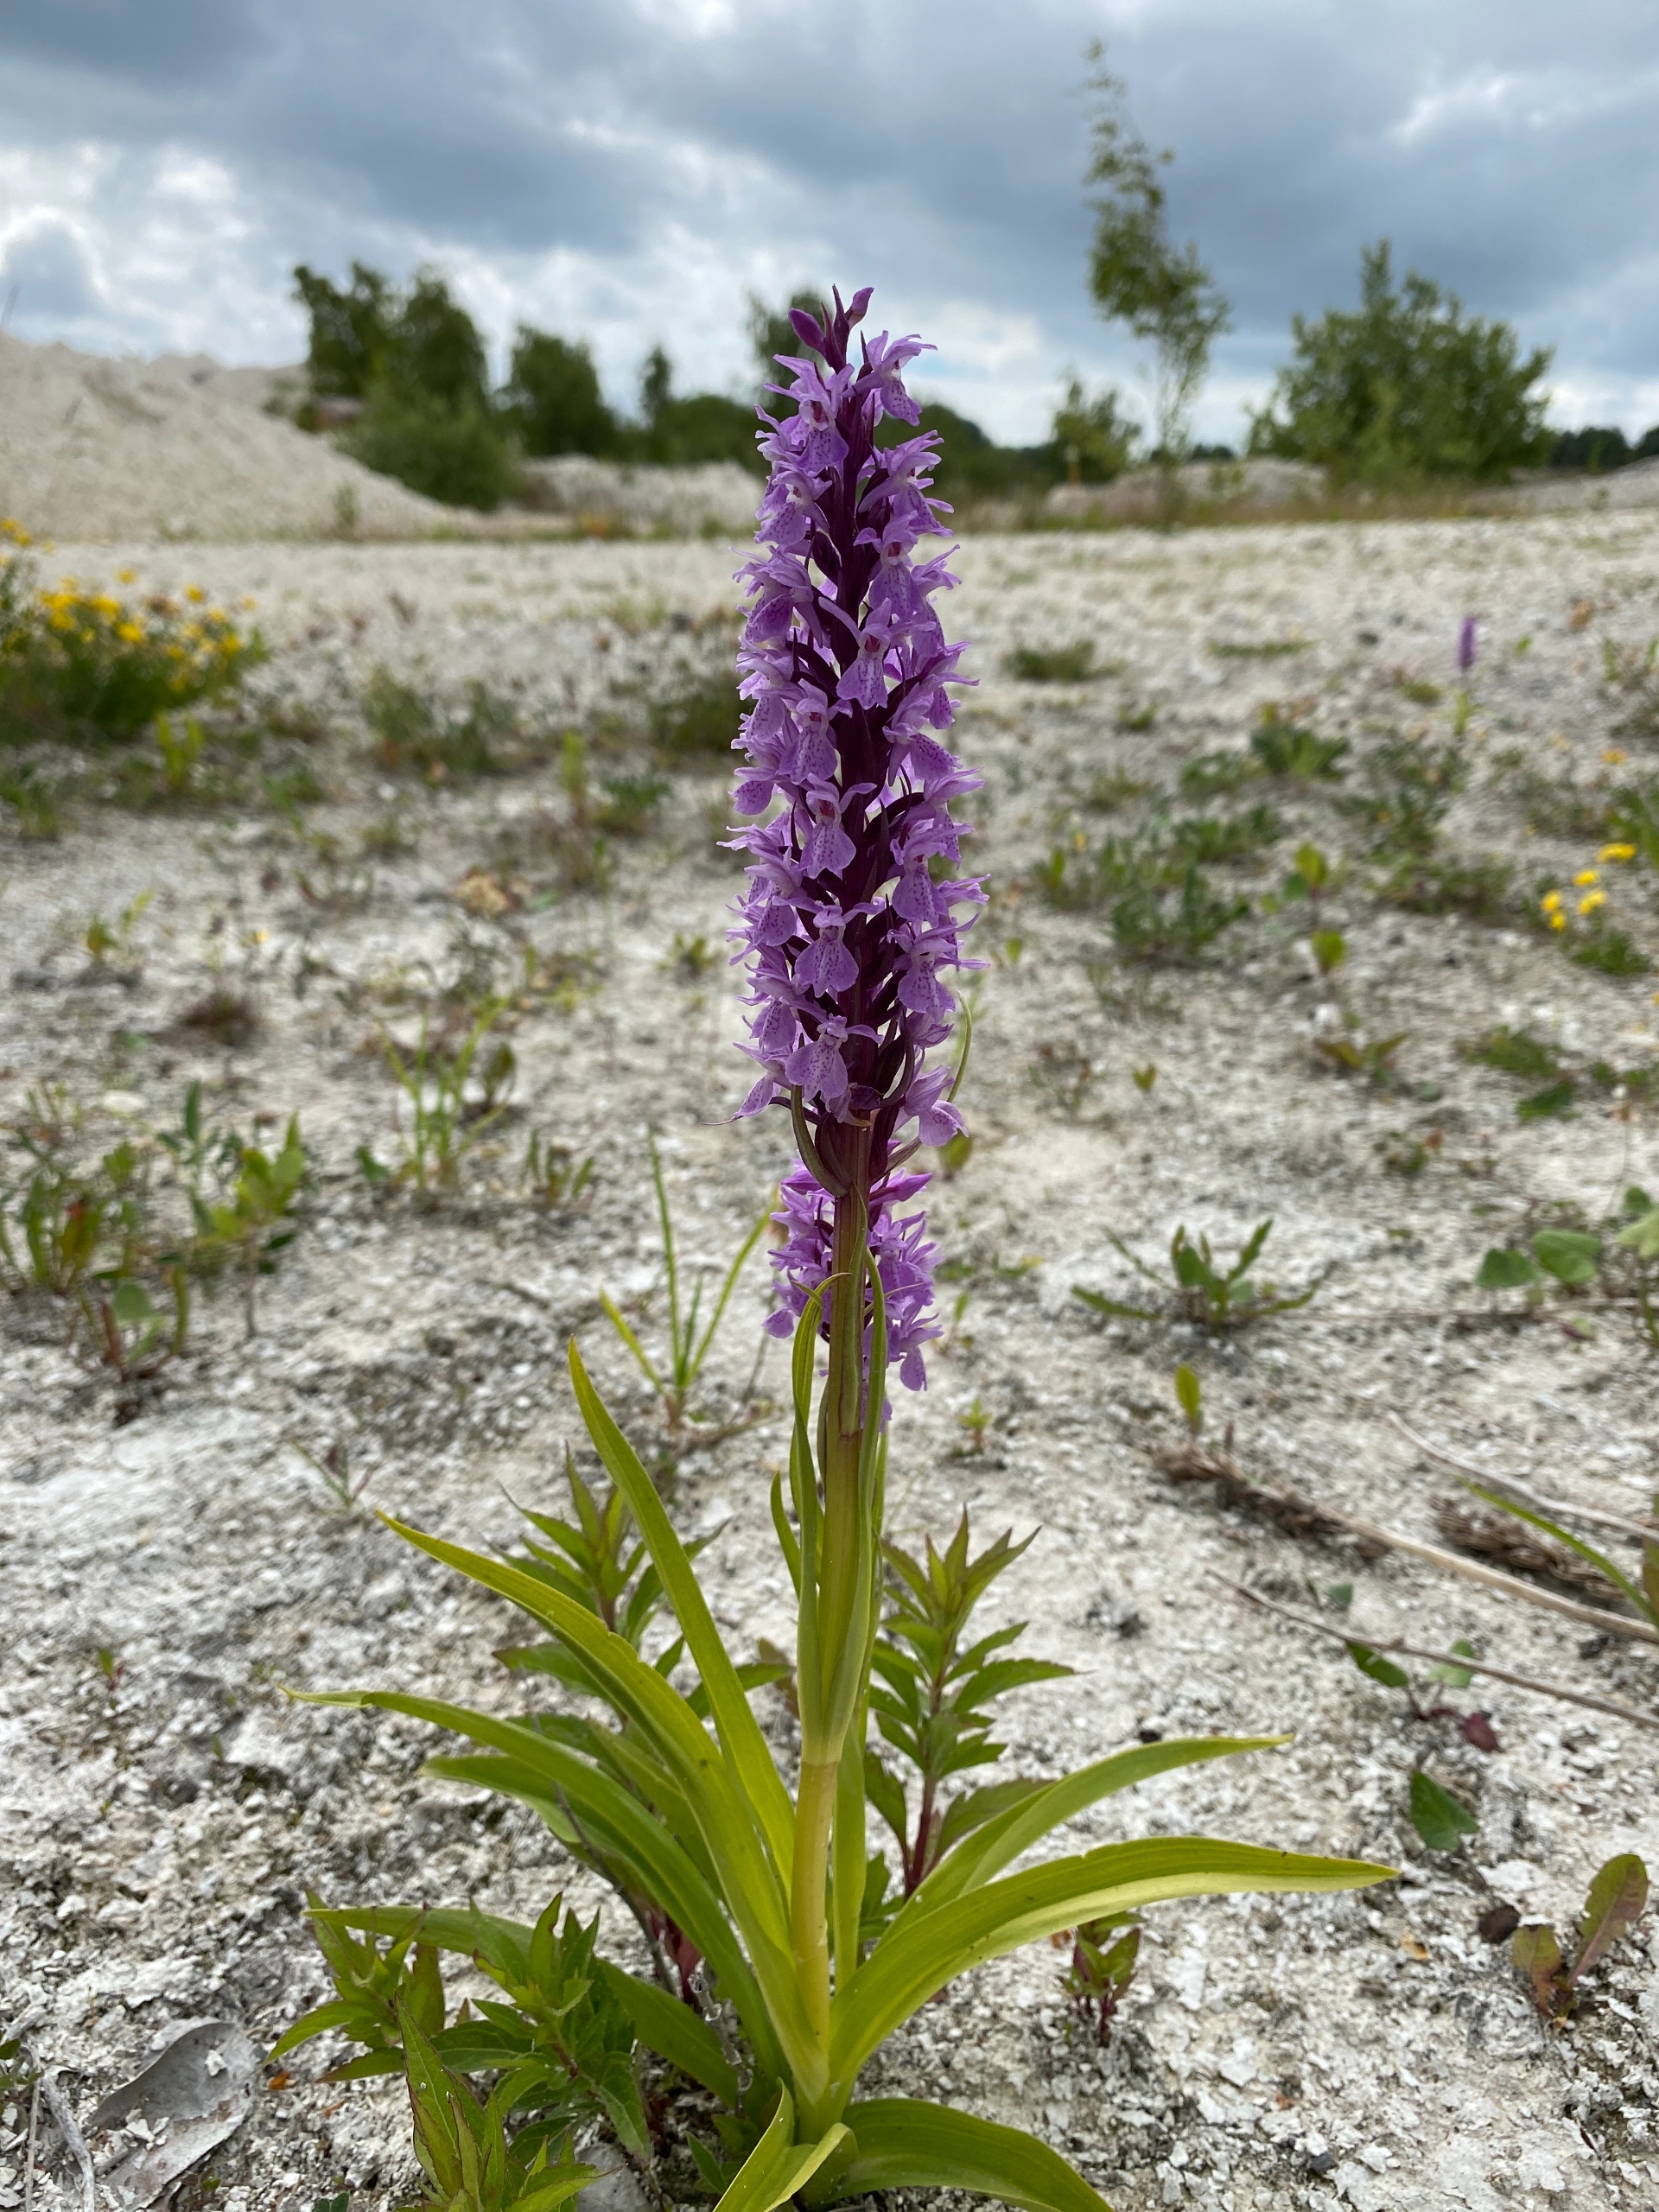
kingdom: Plantae
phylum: Tracheophyta
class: Liliopsida
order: Asparagales
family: Orchidaceae
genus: Dactylorhiza
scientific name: Dactylorhiza majalis
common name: Priklæbet gøgeurt
